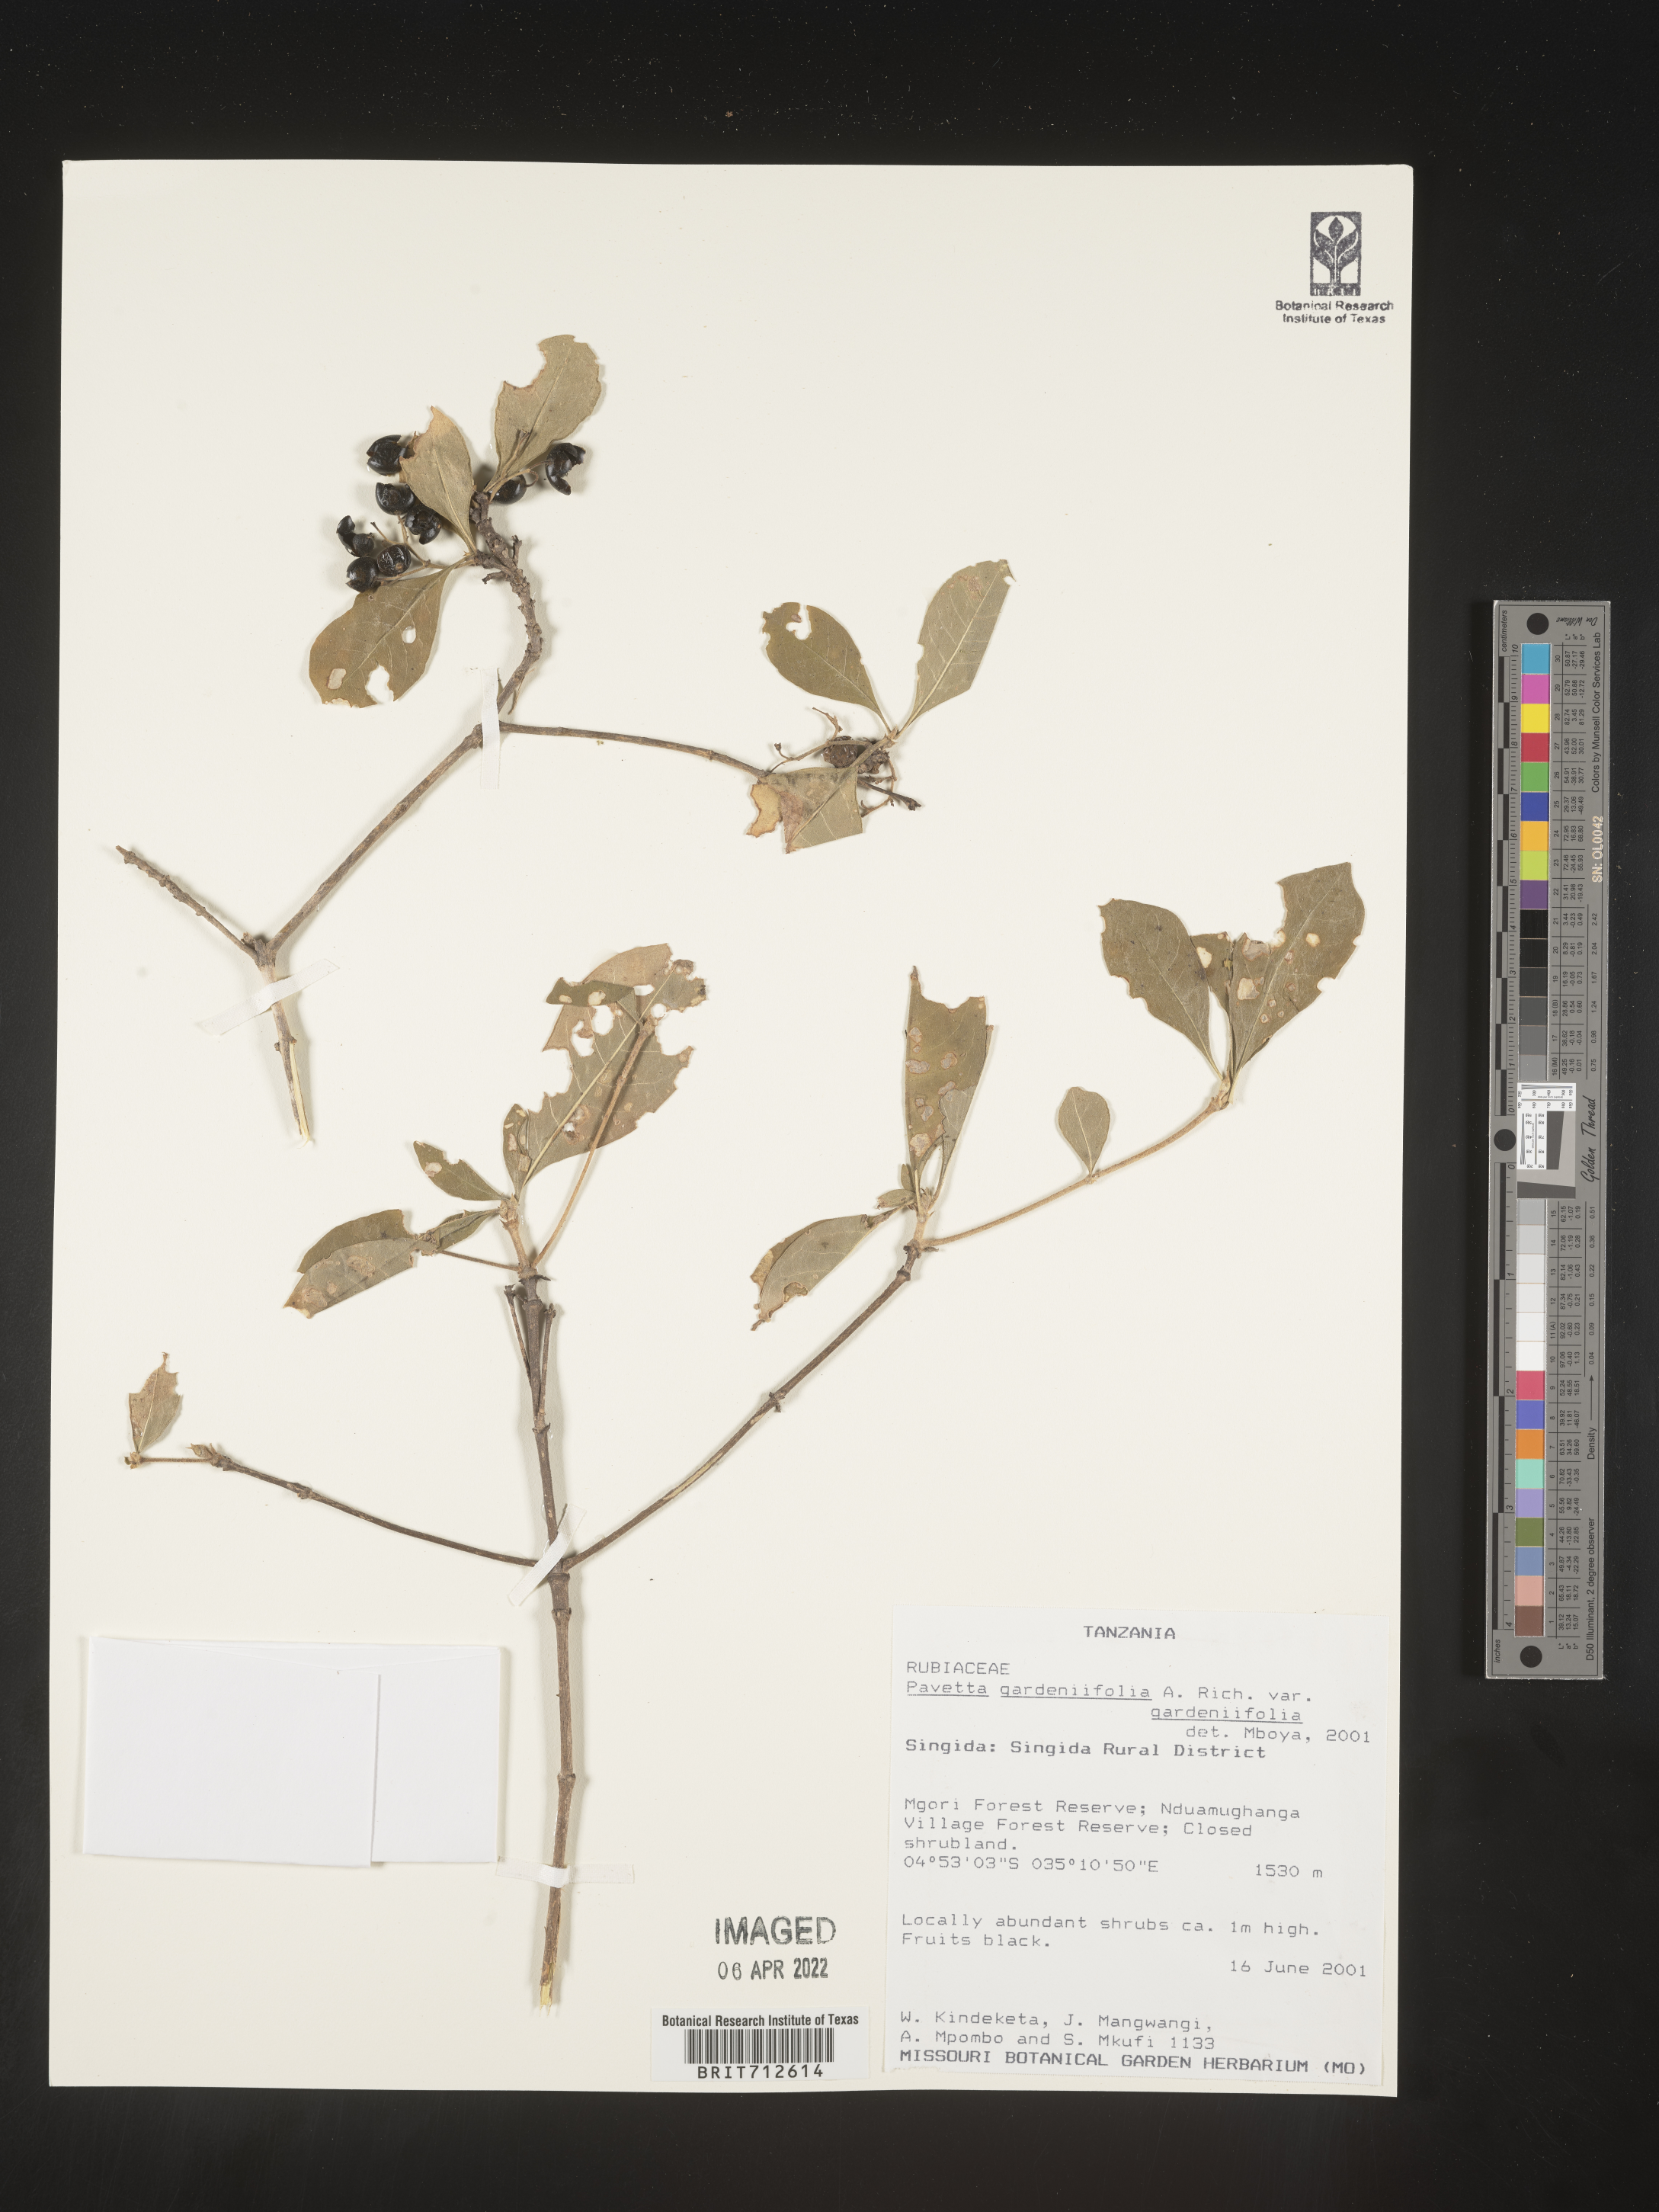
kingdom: Plantae
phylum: Tracheophyta
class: Magnoliopsida
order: Gentianales
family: Rubiaceae
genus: Pavetta
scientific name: Pavetta
